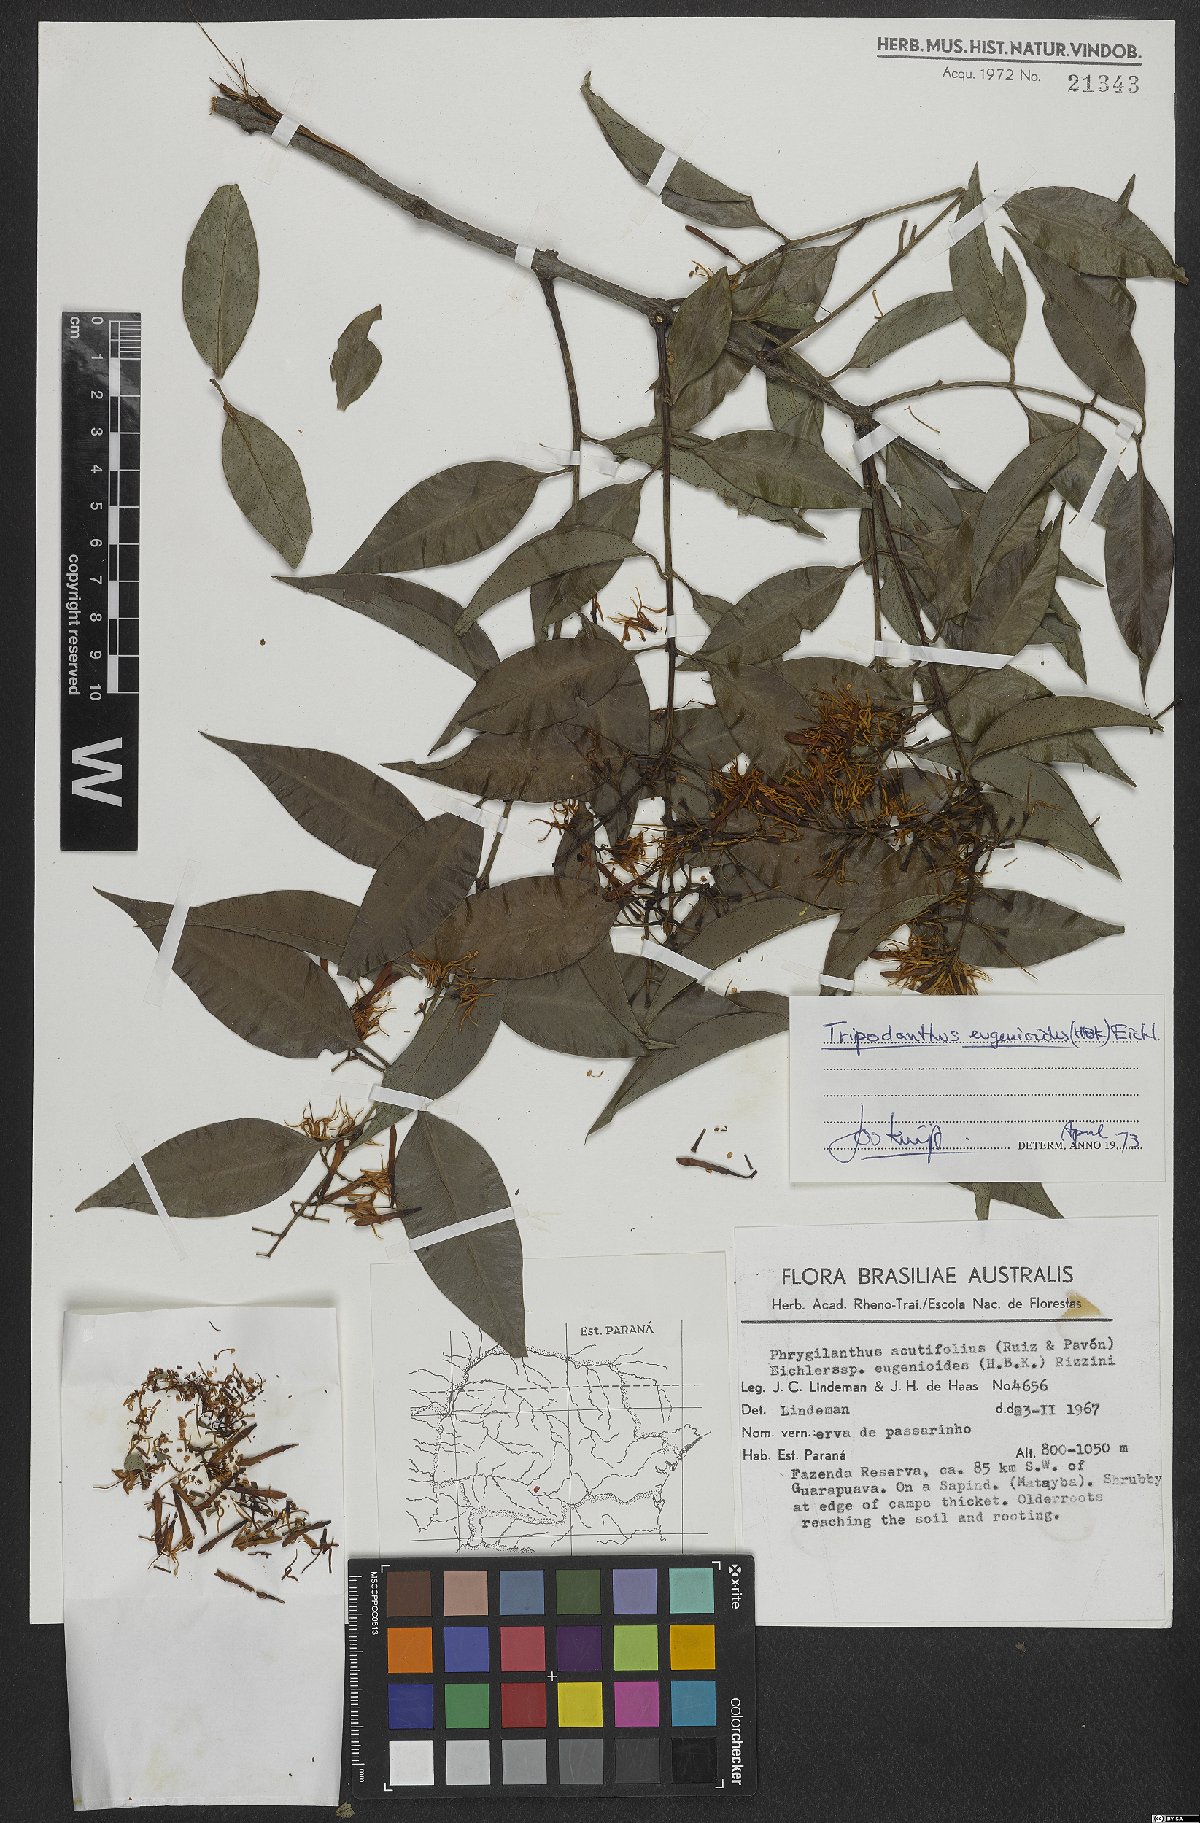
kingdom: Plantae
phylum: Tracheophyta
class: Magnoliopsida
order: Santalales
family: Loranthaceae
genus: Tripodanthus
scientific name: Tripodanthus acutifolius
